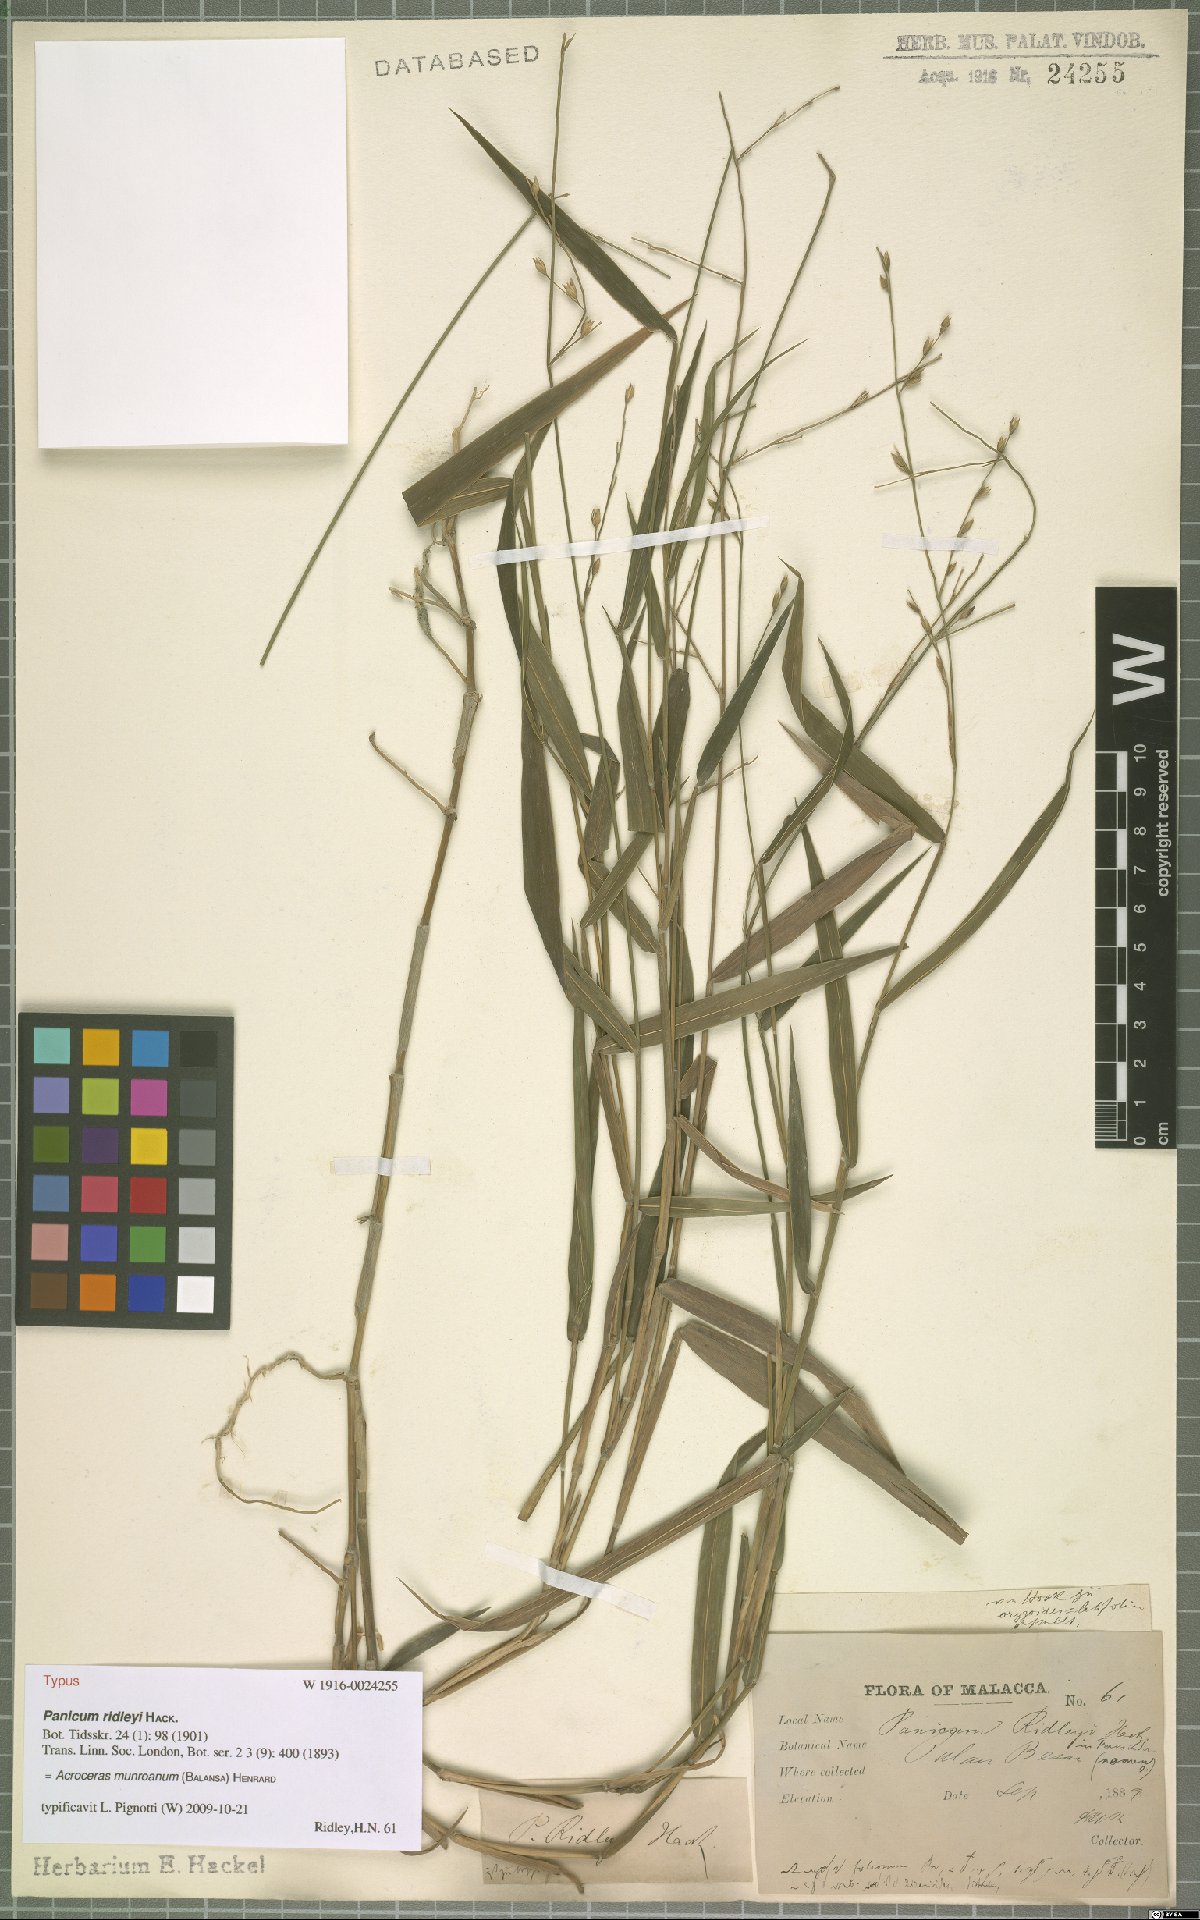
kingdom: Plantae
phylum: Tracheophyta
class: Liliopsida
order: Poales
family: Poaceae
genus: Acroceras
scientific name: Acroceras munroanum
